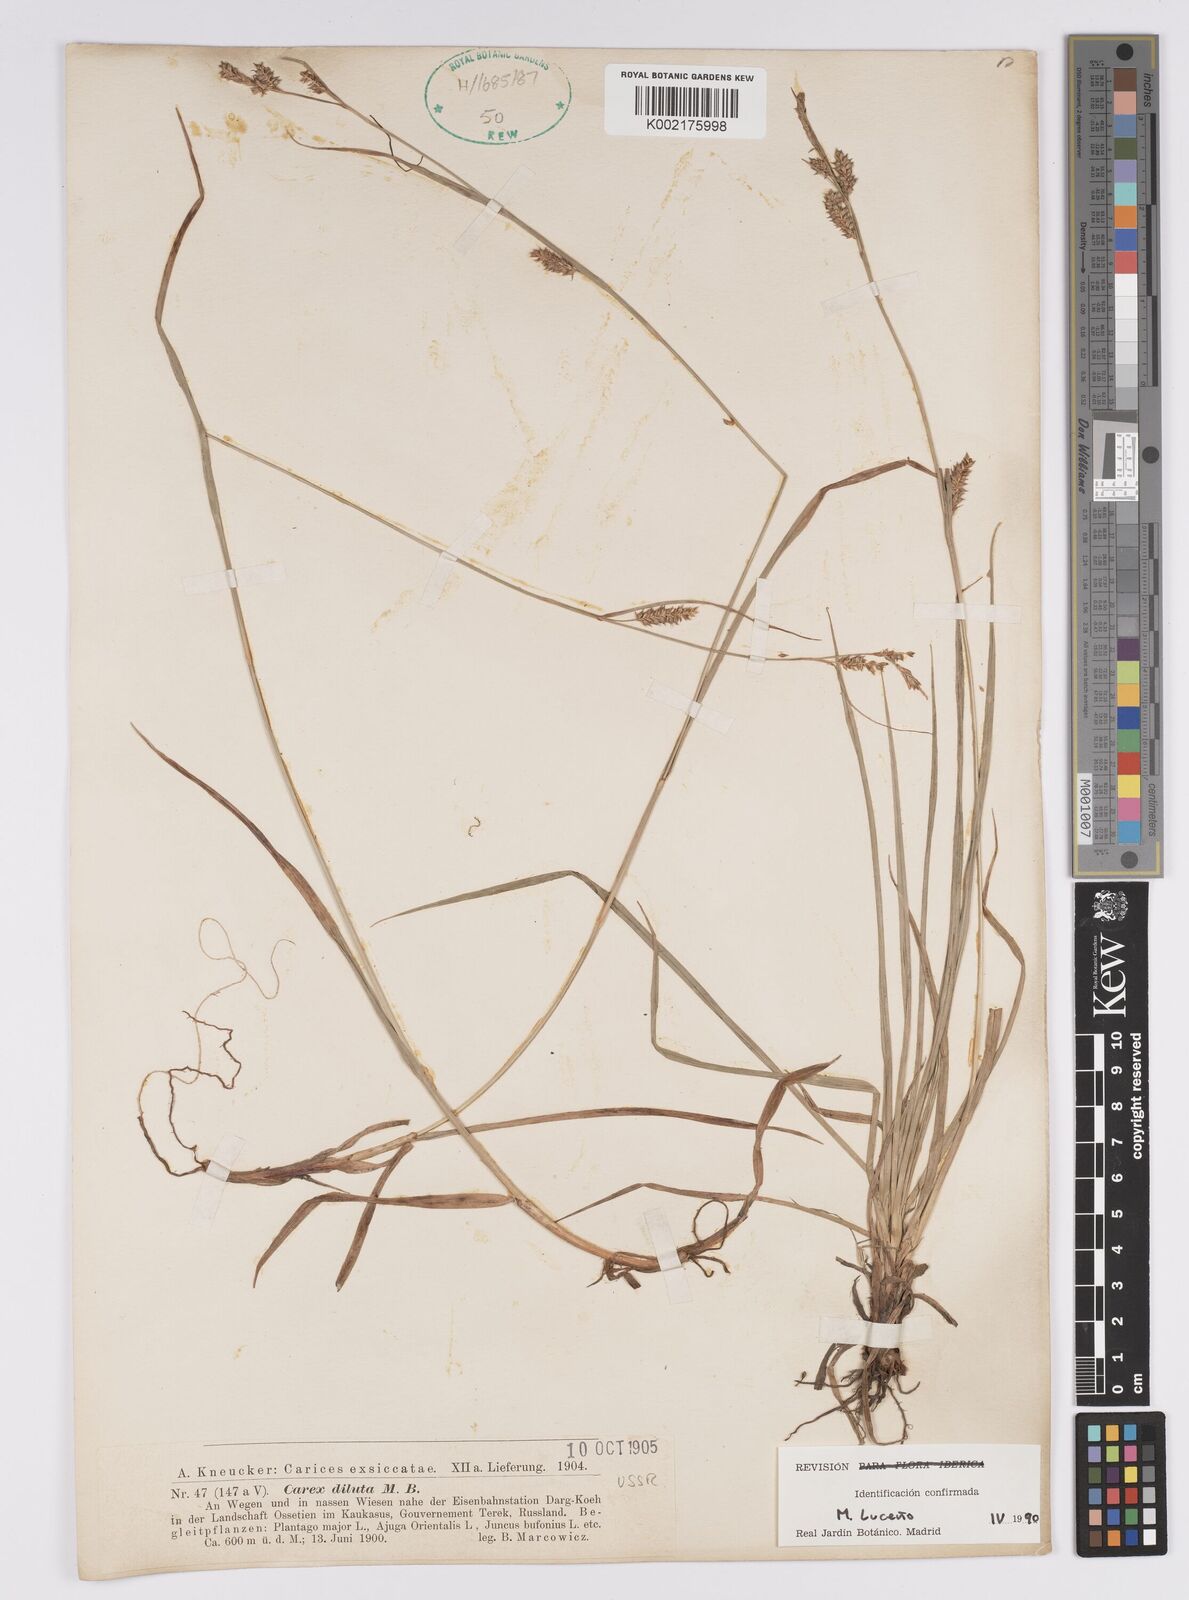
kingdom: Plantae
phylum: Tracheophyta
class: Liliopsida
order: Poales
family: Cyperaceae
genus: Carex
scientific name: Carex diluta
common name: Sedge
